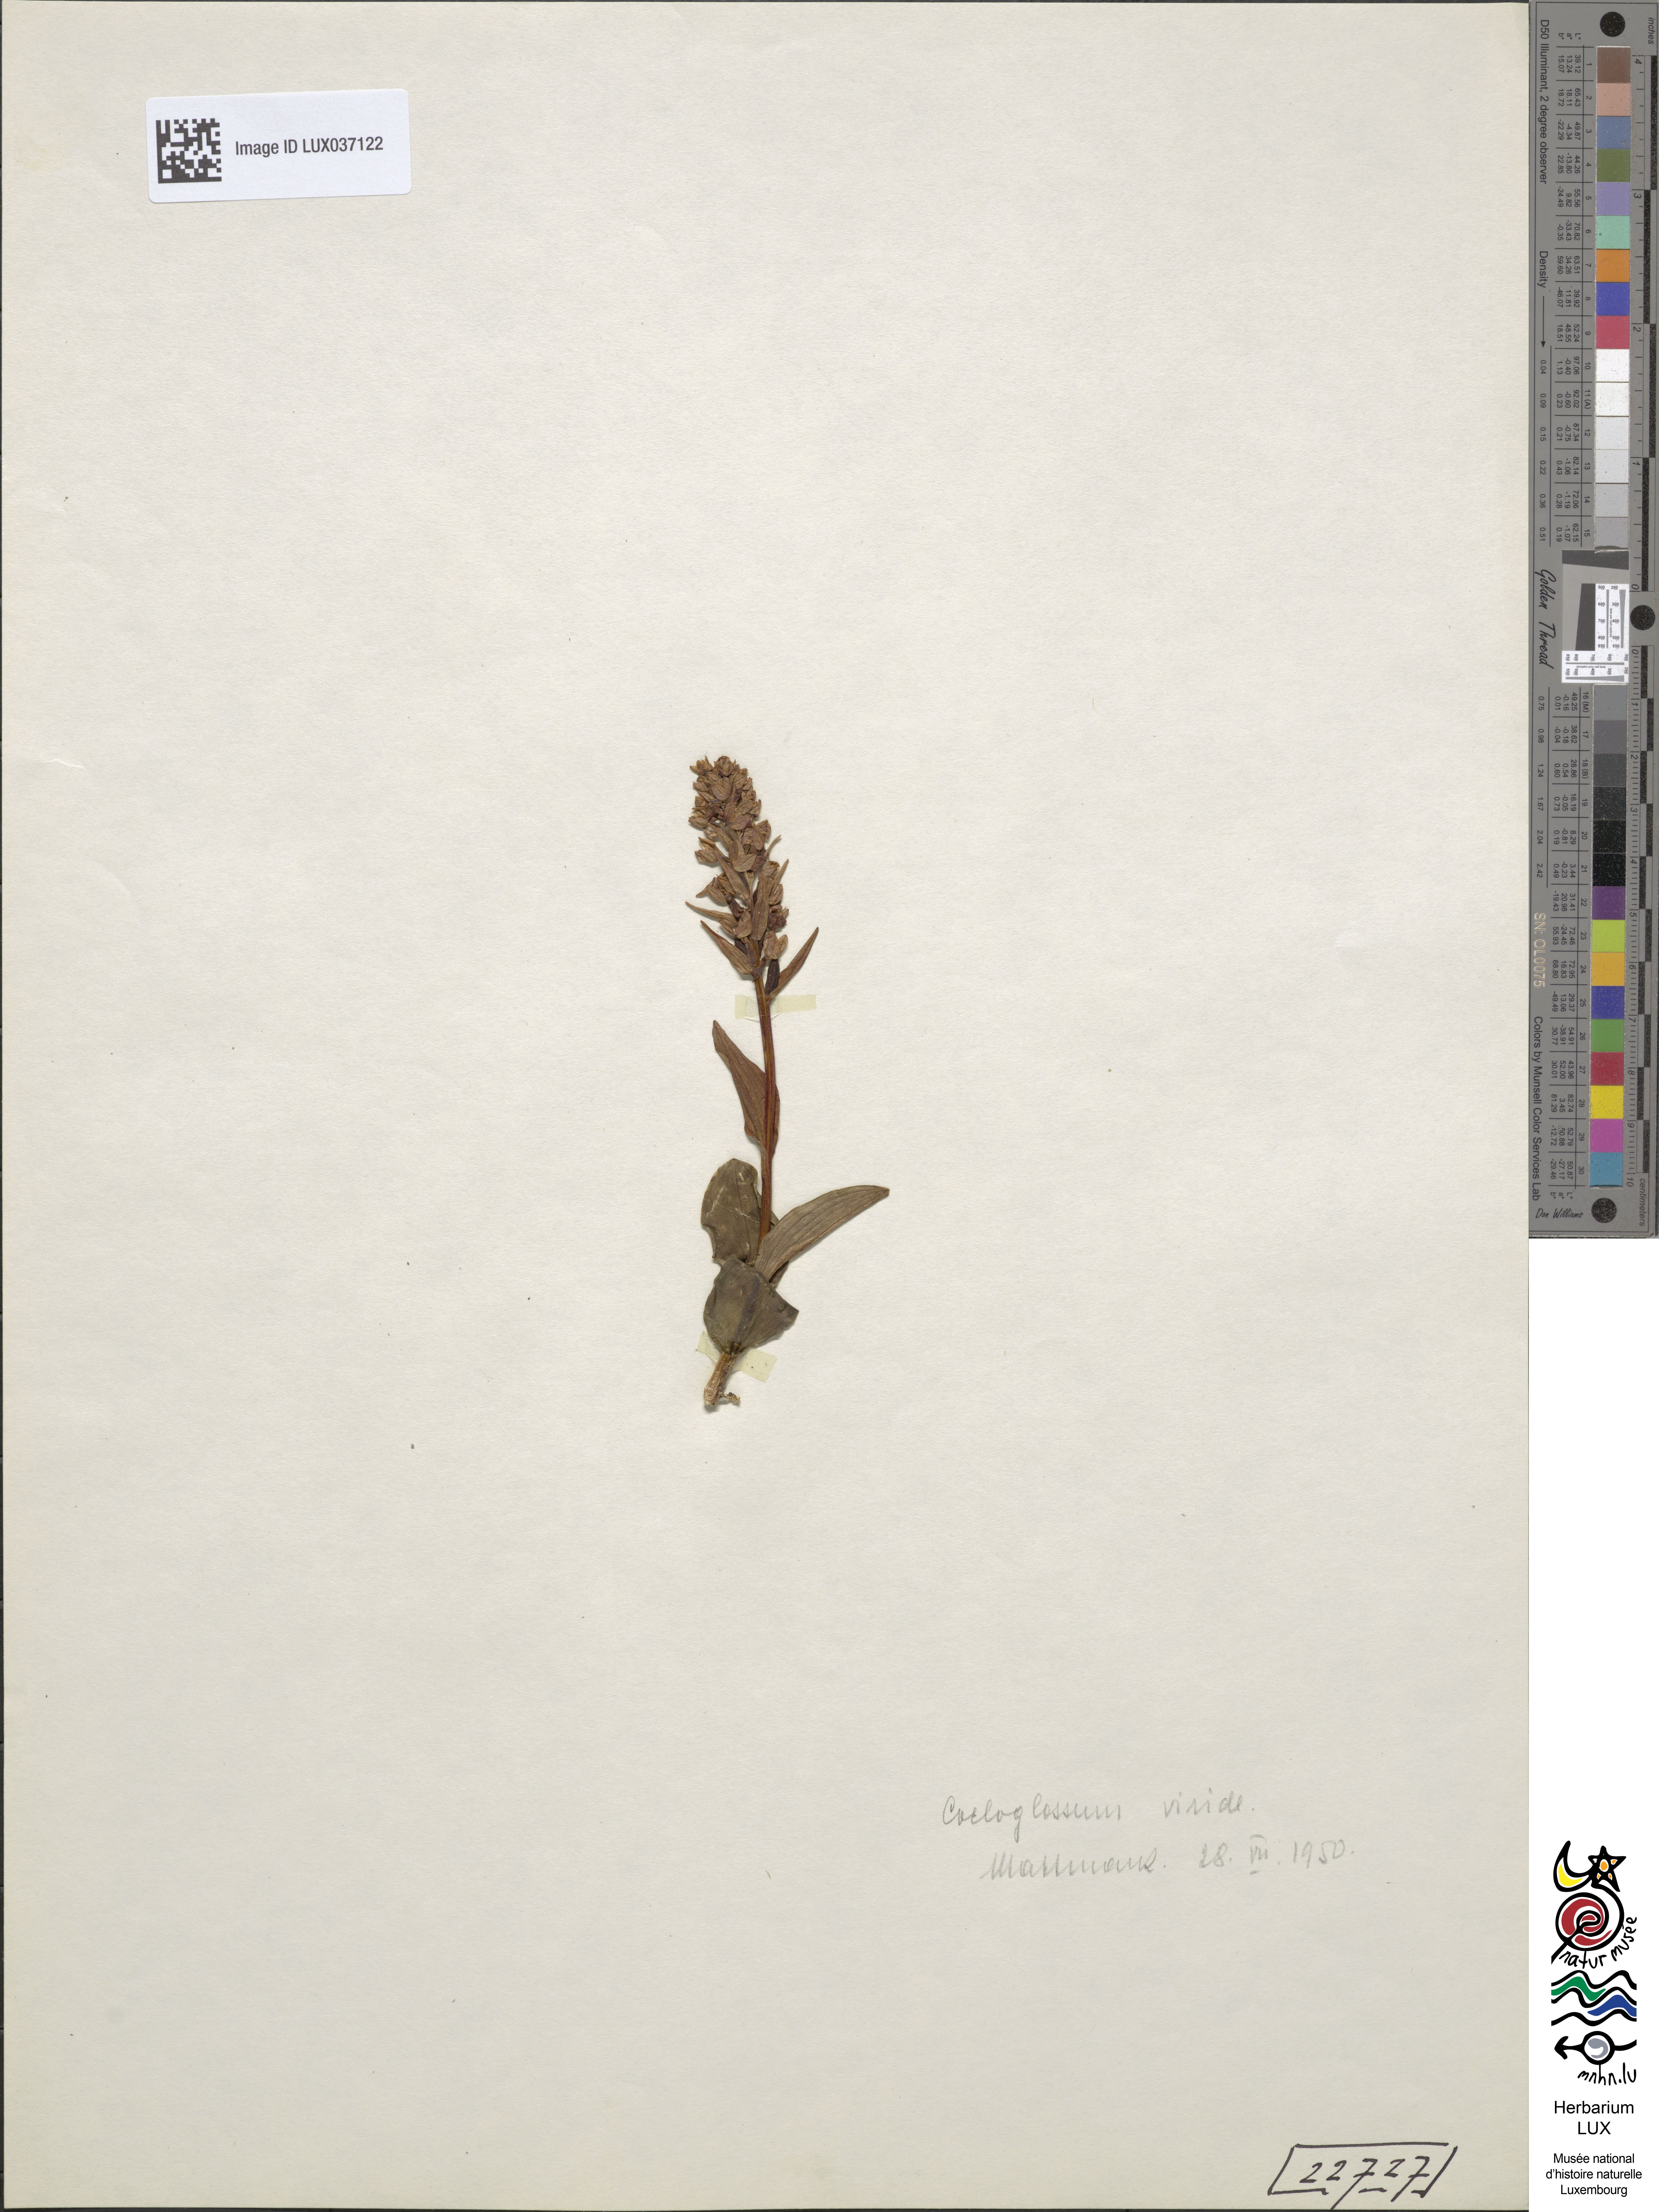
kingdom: Plantae
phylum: Tracheophyta
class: Liliopsida
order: Asparagales
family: Orchidaceae
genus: Dactylorhiza
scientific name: Dactylorhiza viridis
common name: Longbract frog orchid
